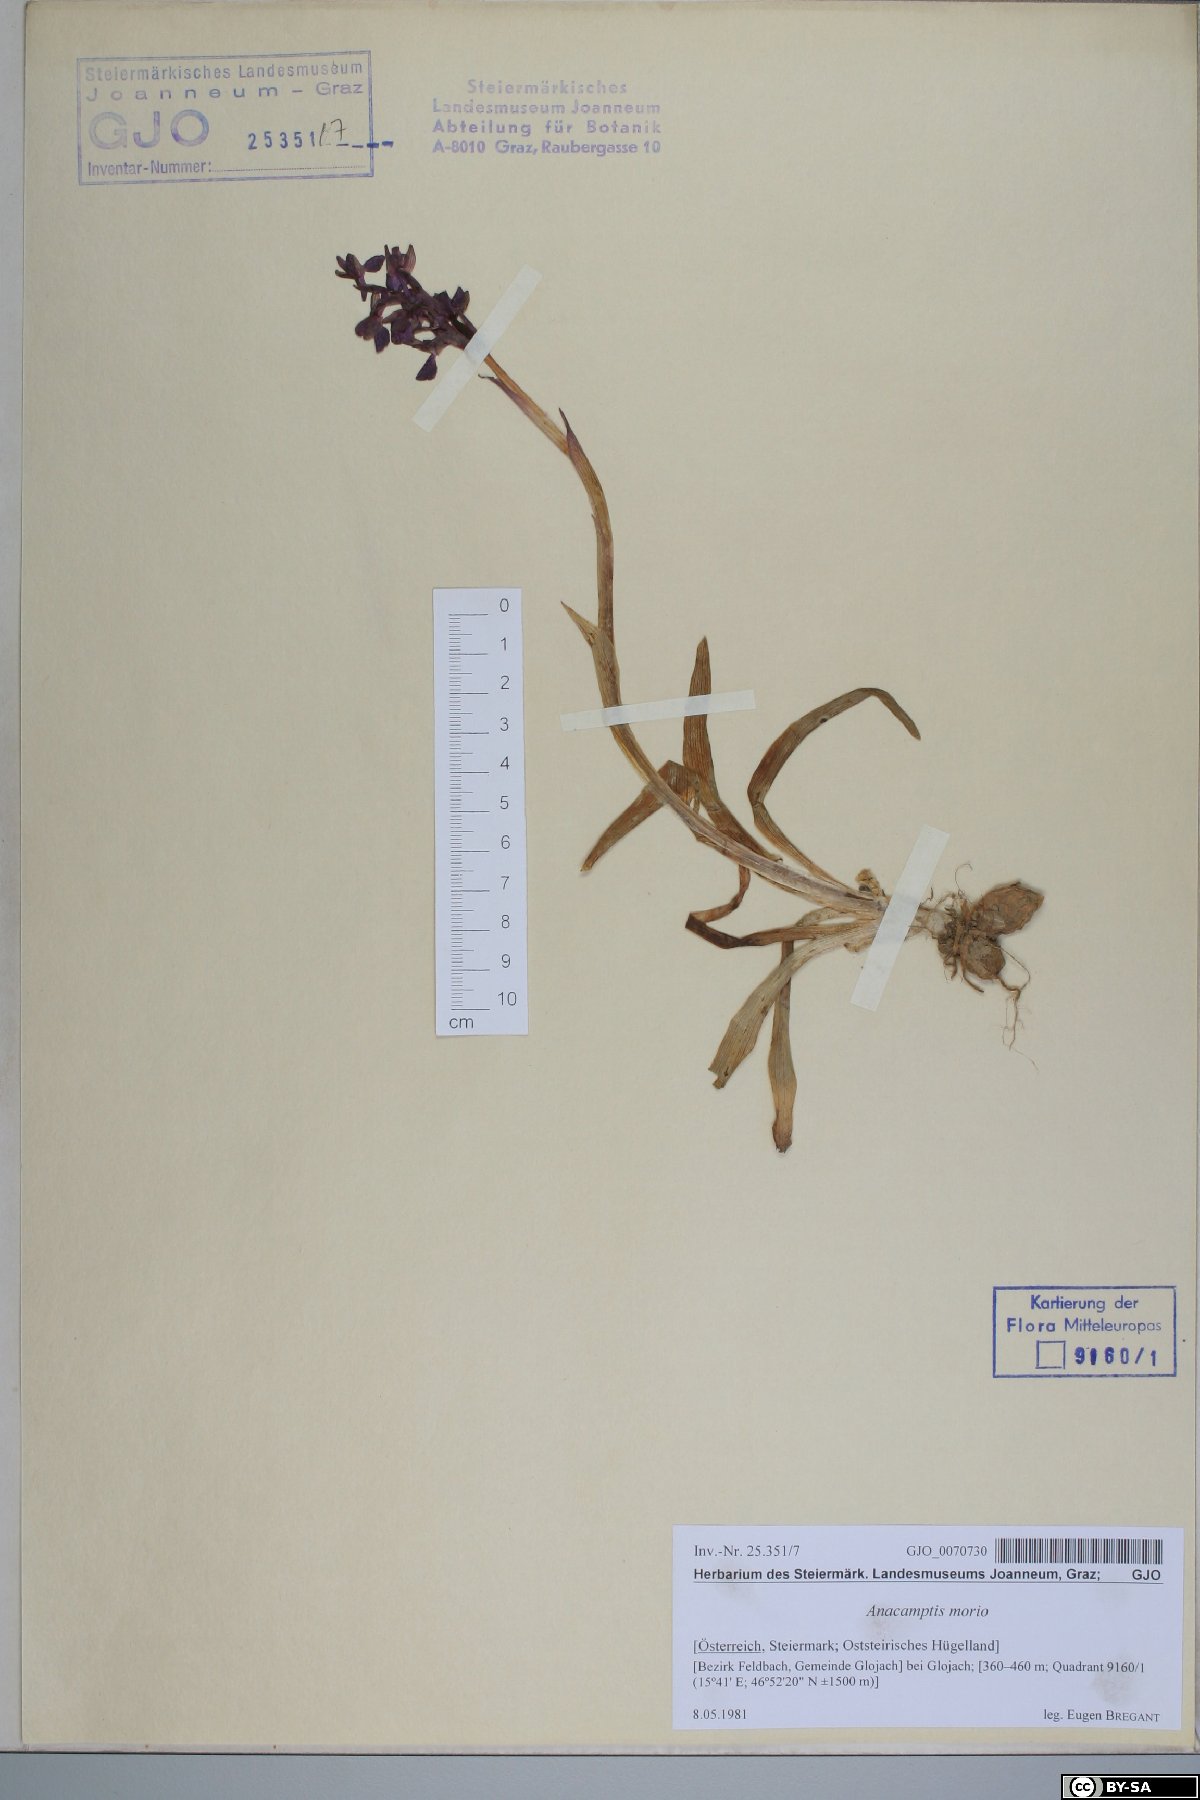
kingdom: Plantae
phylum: Tracheophyta
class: Liliopsida
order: Asparagales
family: Orchidaceae
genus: Anacamptis
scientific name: Anacamptis morio
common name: Green-winged orchid
